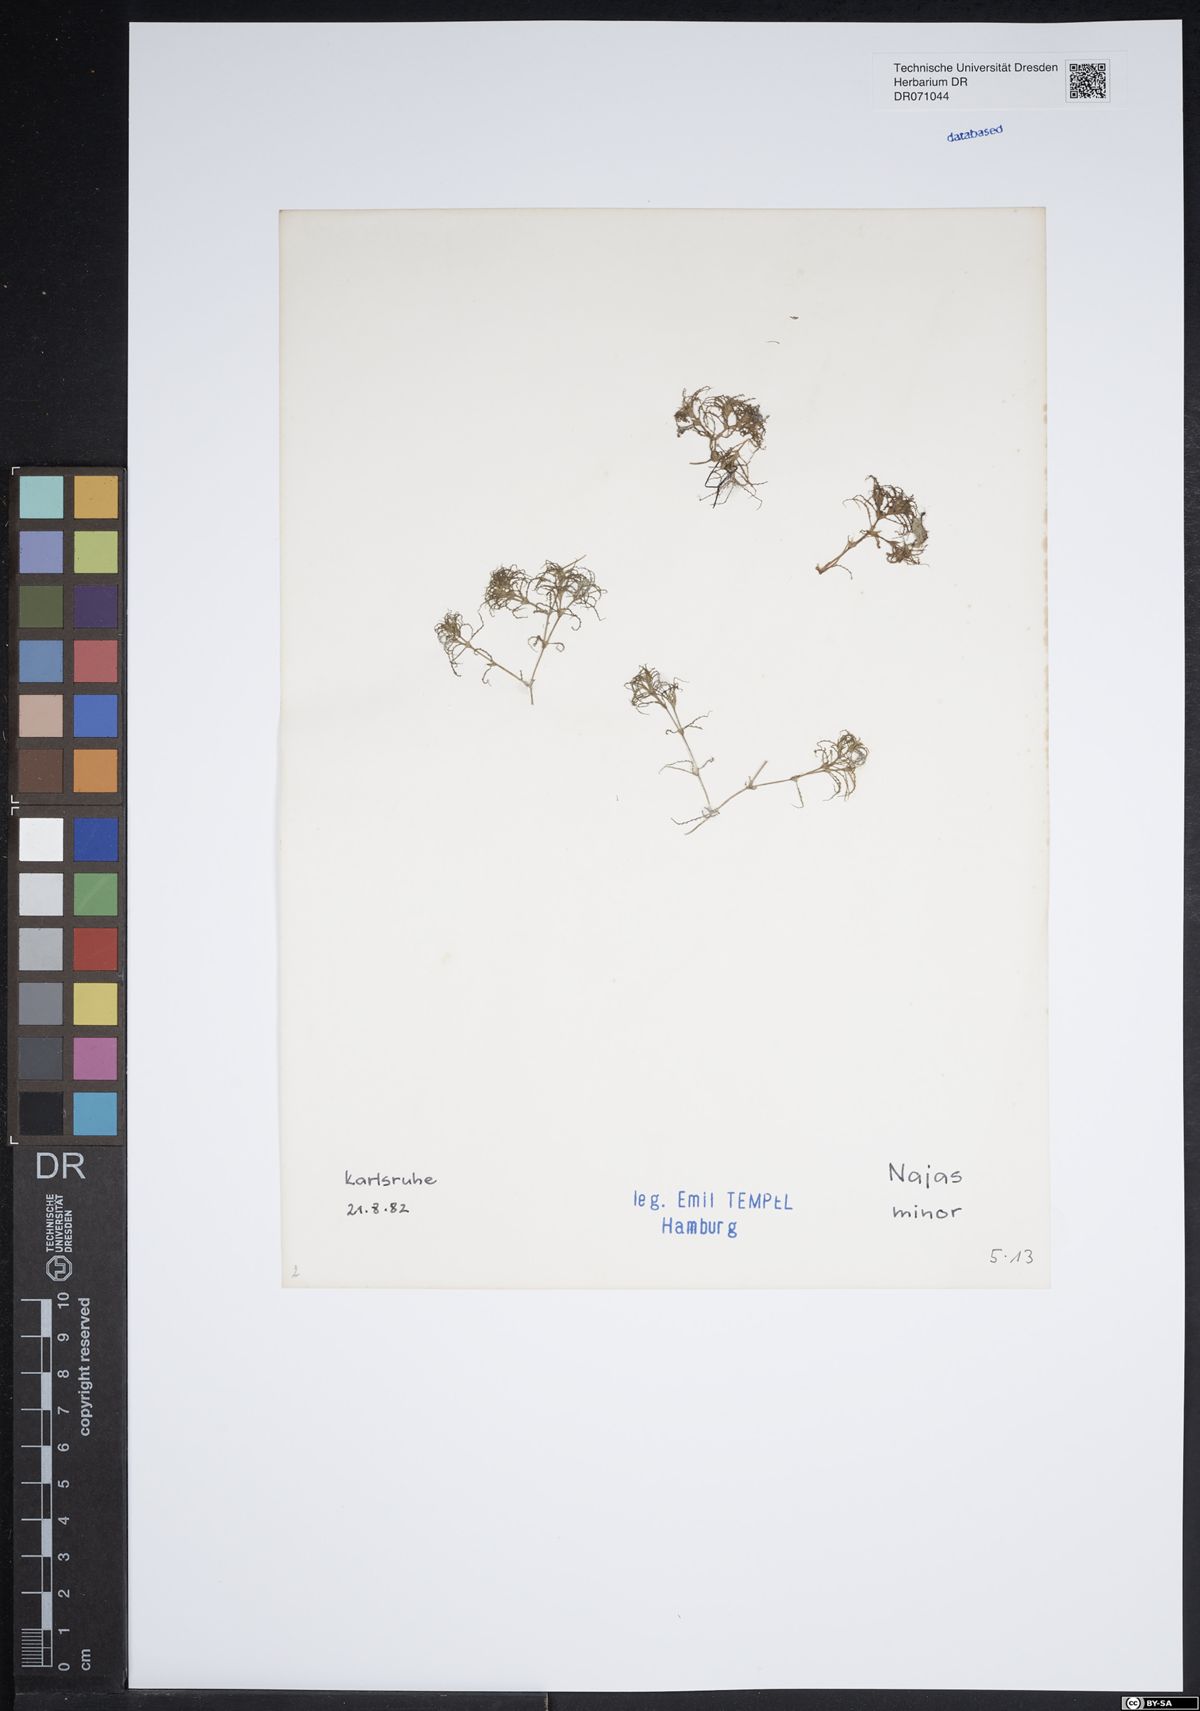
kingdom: Plantae
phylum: Tracheophyta
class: Liliopsida
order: Alismatales
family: Hydrocharitaceae
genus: Najas
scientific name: Najas minor
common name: Brittle naiad
